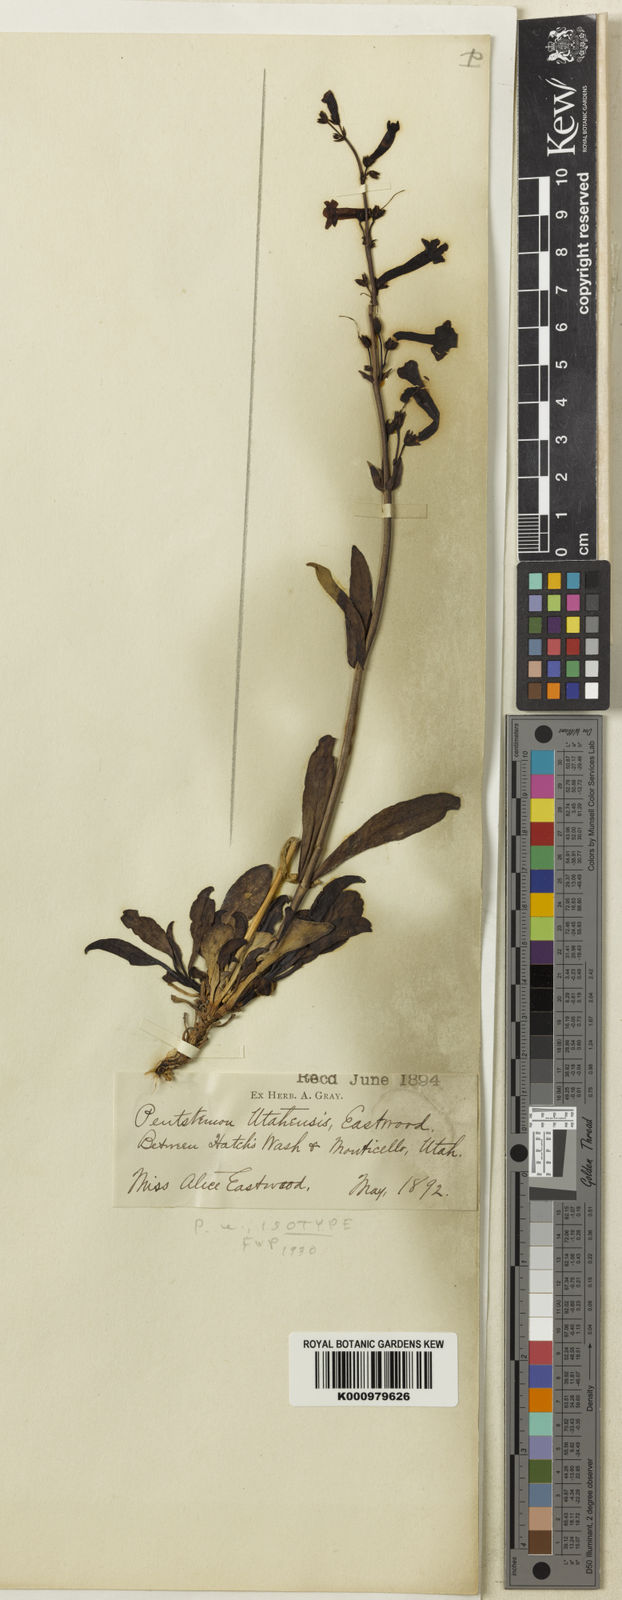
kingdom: Plantae
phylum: Tracheophyta
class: Magnoliopsida
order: Lamiales
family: Plantaginaceae
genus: Penstemon
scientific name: Penstemon utahensis
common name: Utah penstemon
